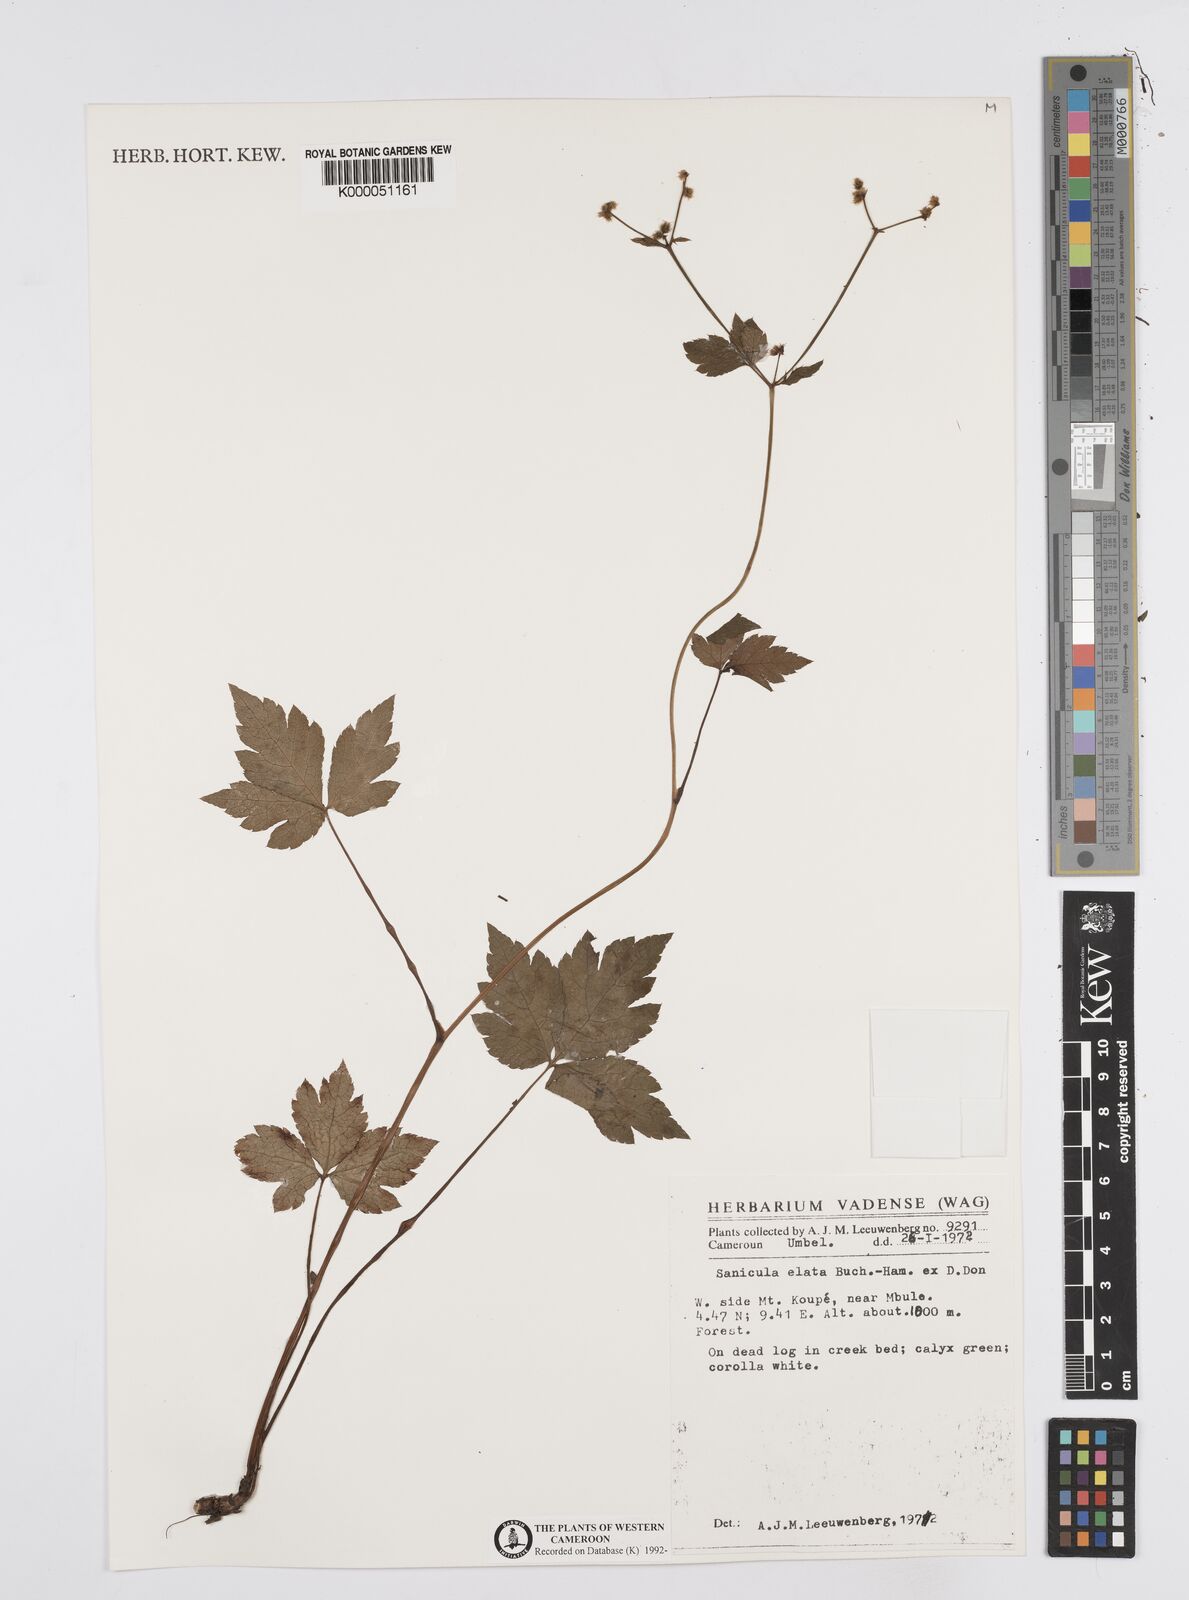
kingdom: Plantae
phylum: Tracheophyta
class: Magnoliopsida
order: Apiales
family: Apiaceae
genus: Sanicula
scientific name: Sanicula
